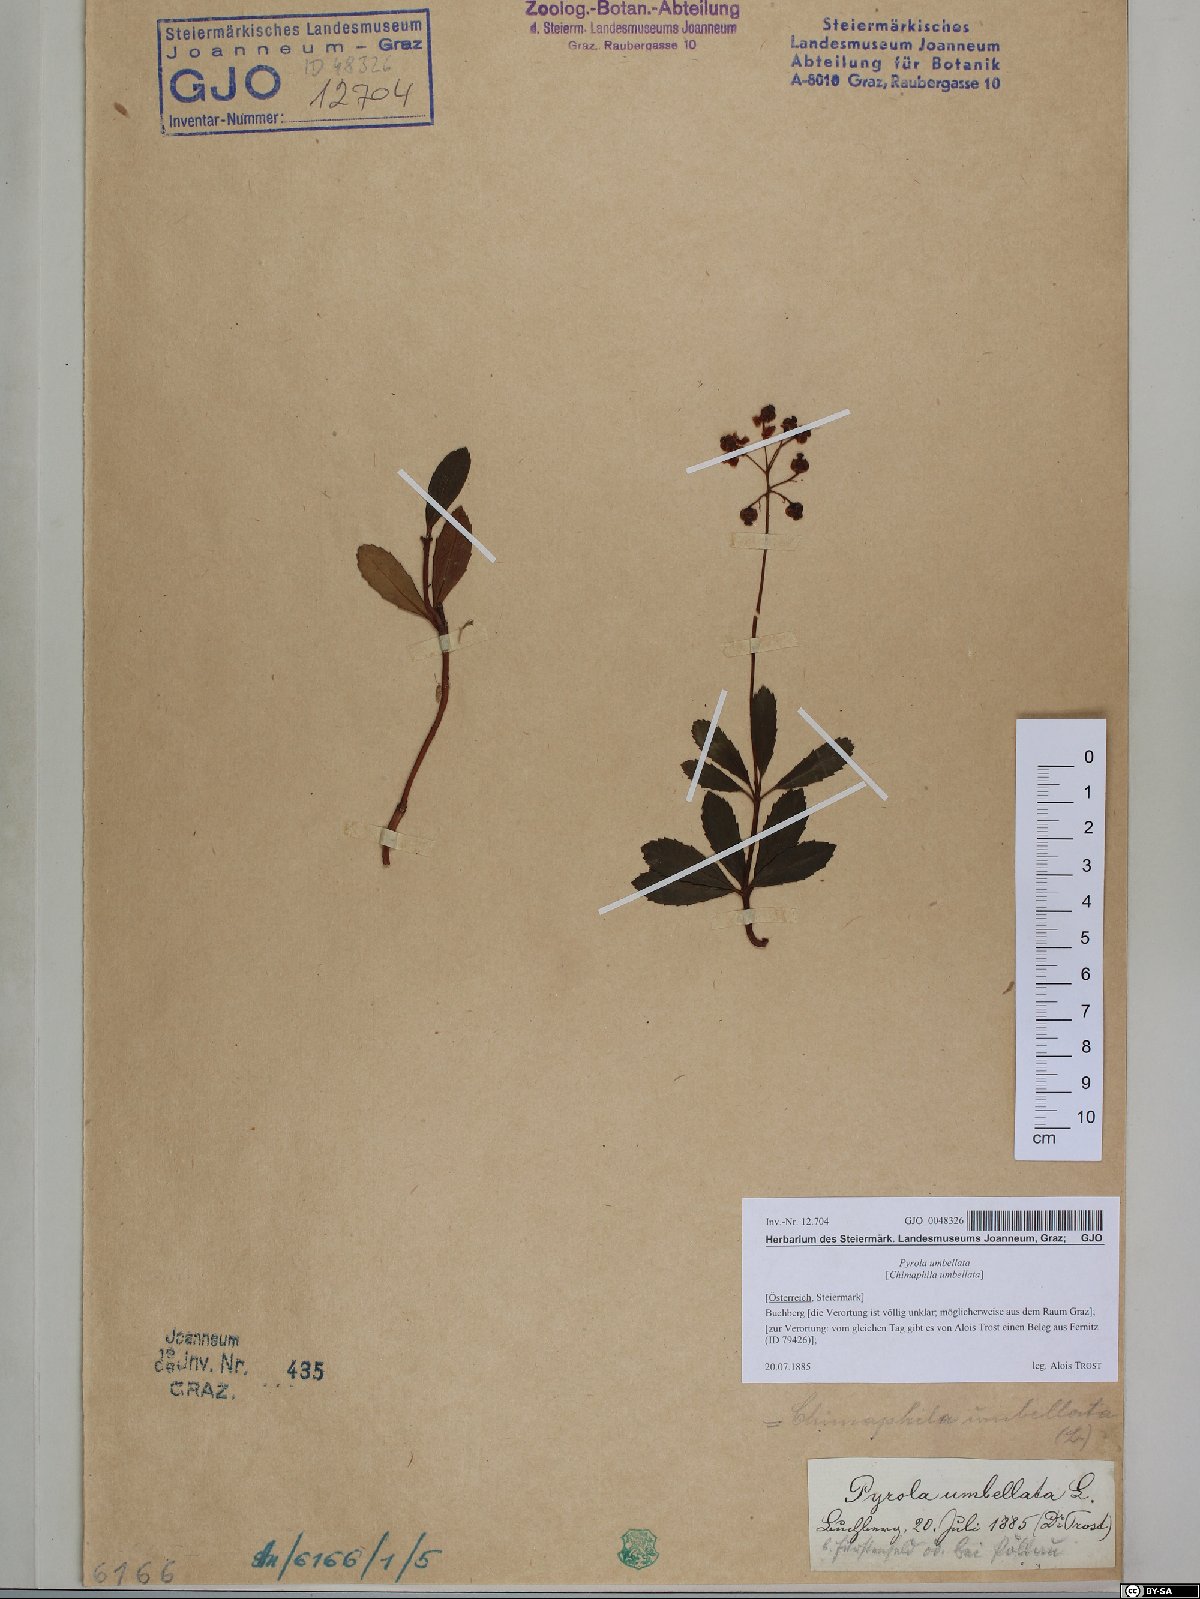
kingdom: Plantae
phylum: Tracheophyta
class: Magnoliopsida
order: Ericales
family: Ericaceae
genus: Chimaphila
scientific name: Chimaphila umbellata
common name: Pipsissewa
